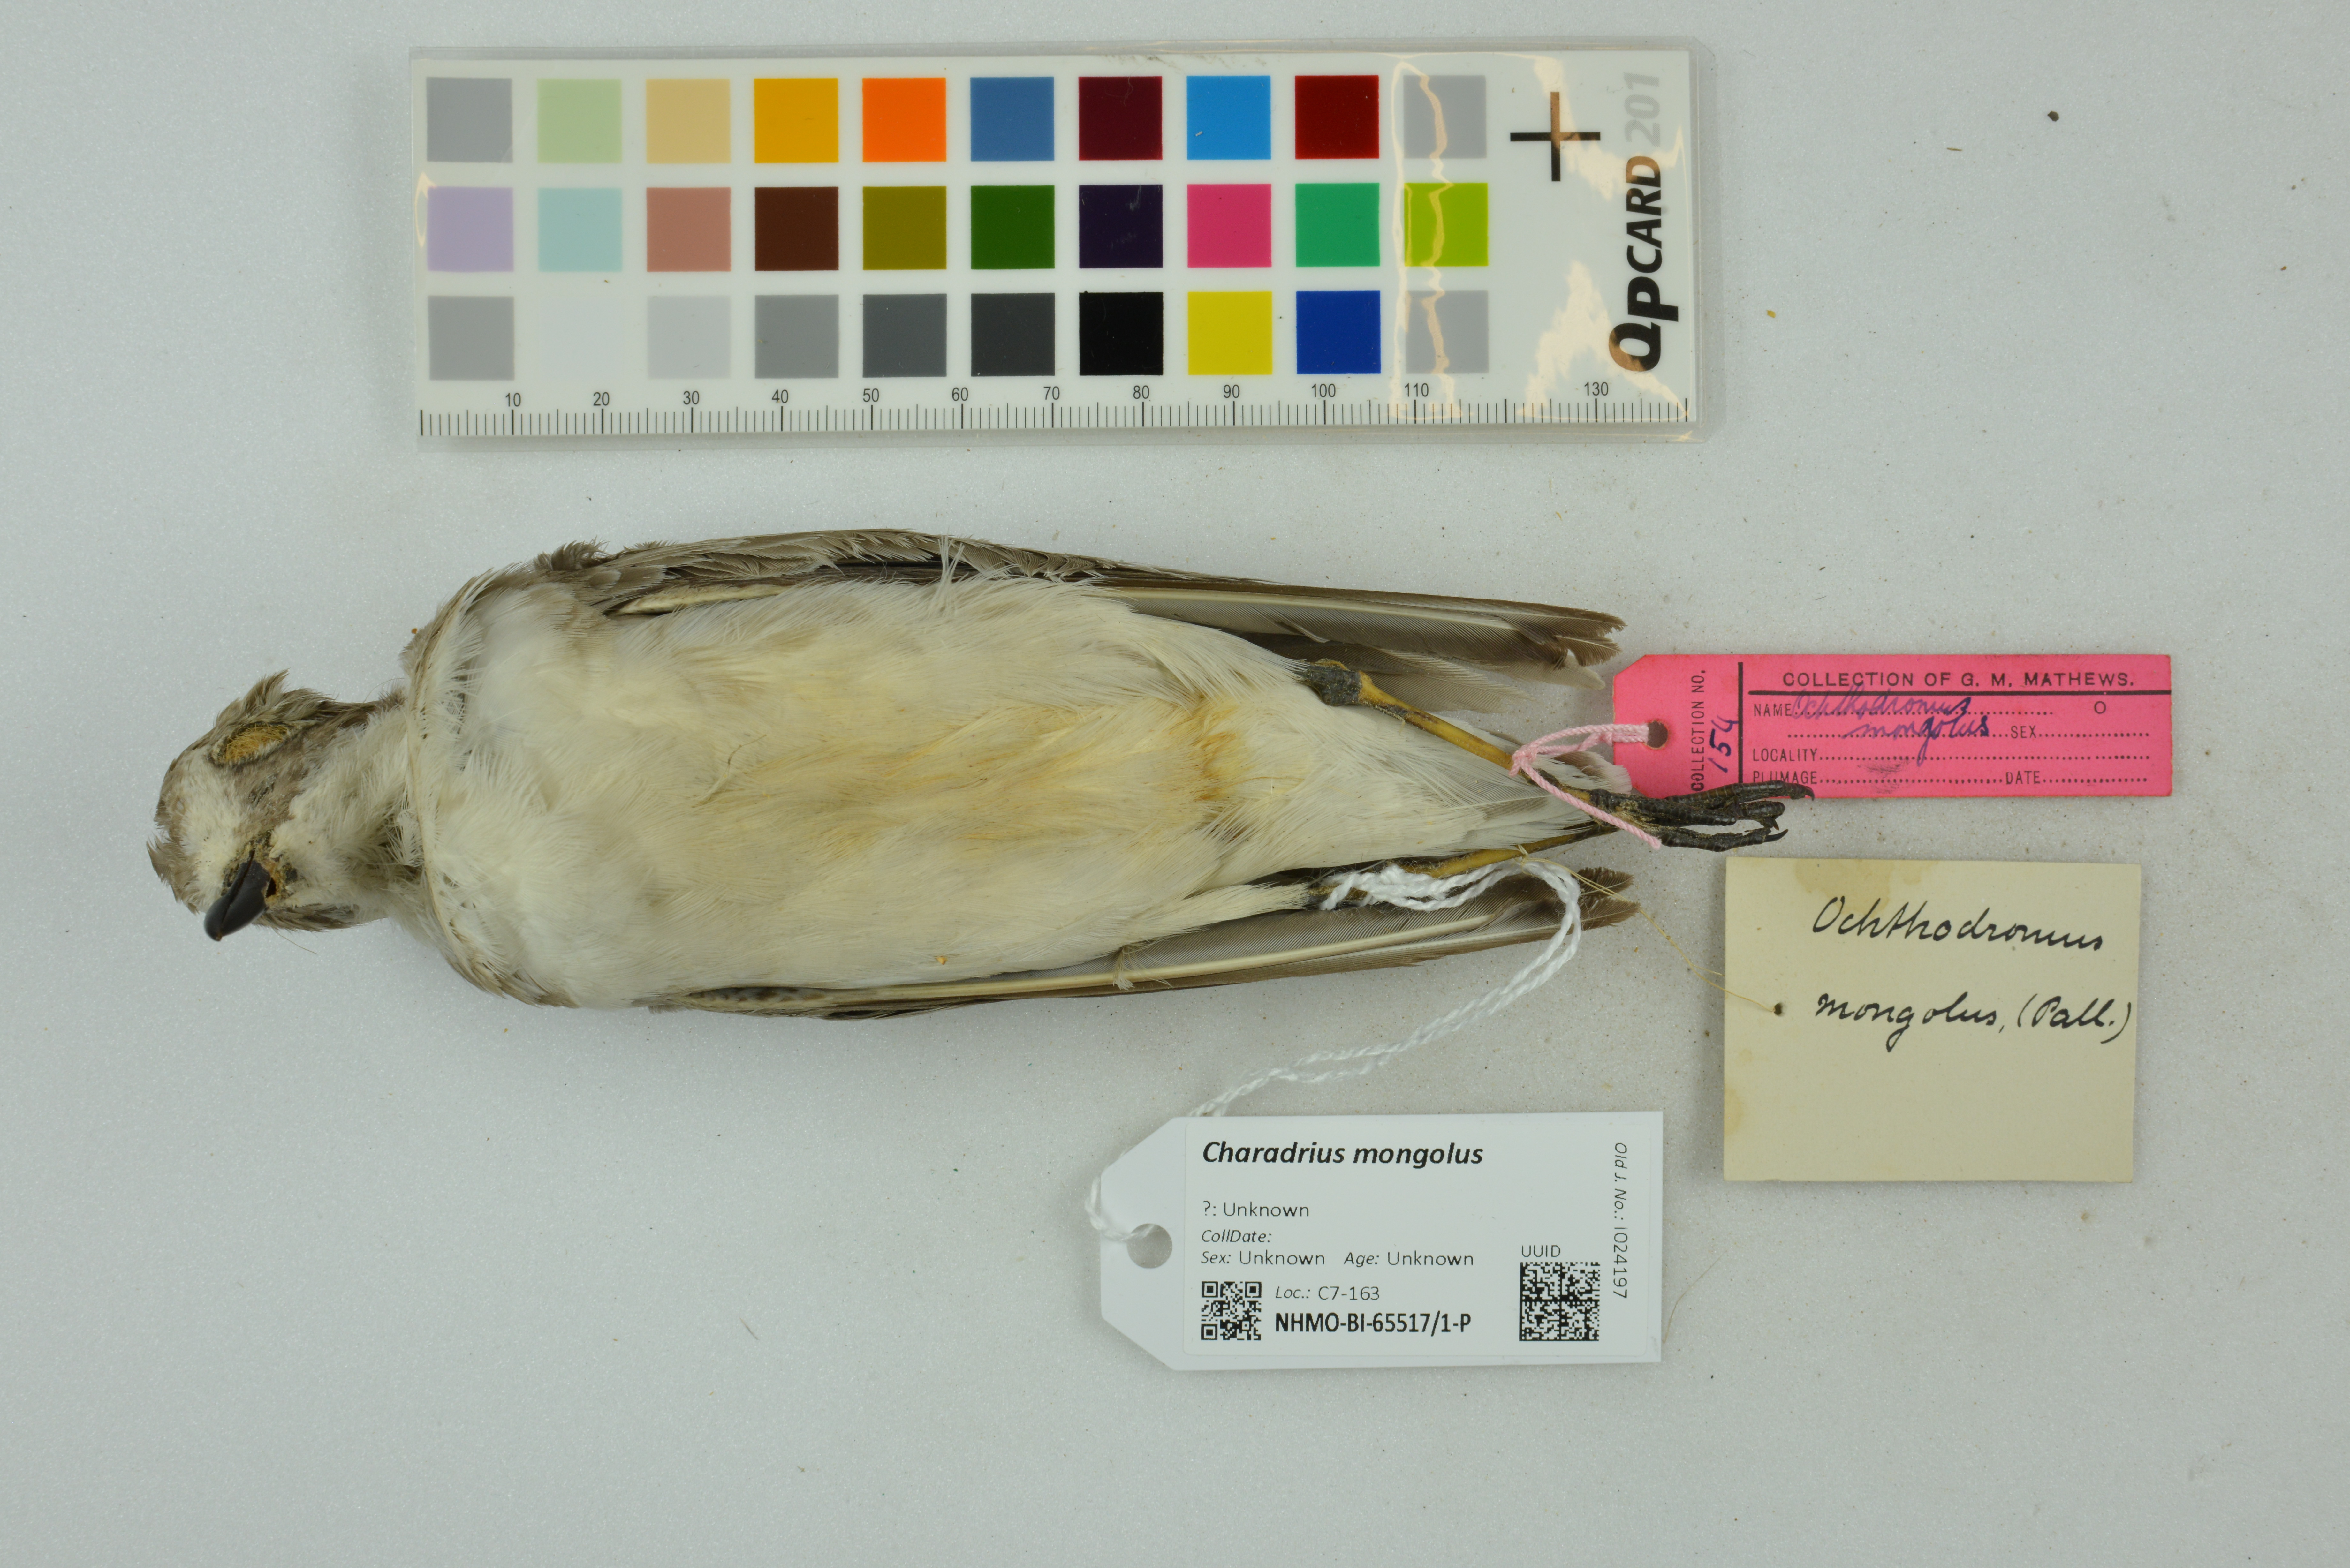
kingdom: Animalia
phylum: Chordata
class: Aves
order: Charadriiformes
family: Charadriidae
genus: Charadrius
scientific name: Charadrius mongolus
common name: Lesser sand-plover
